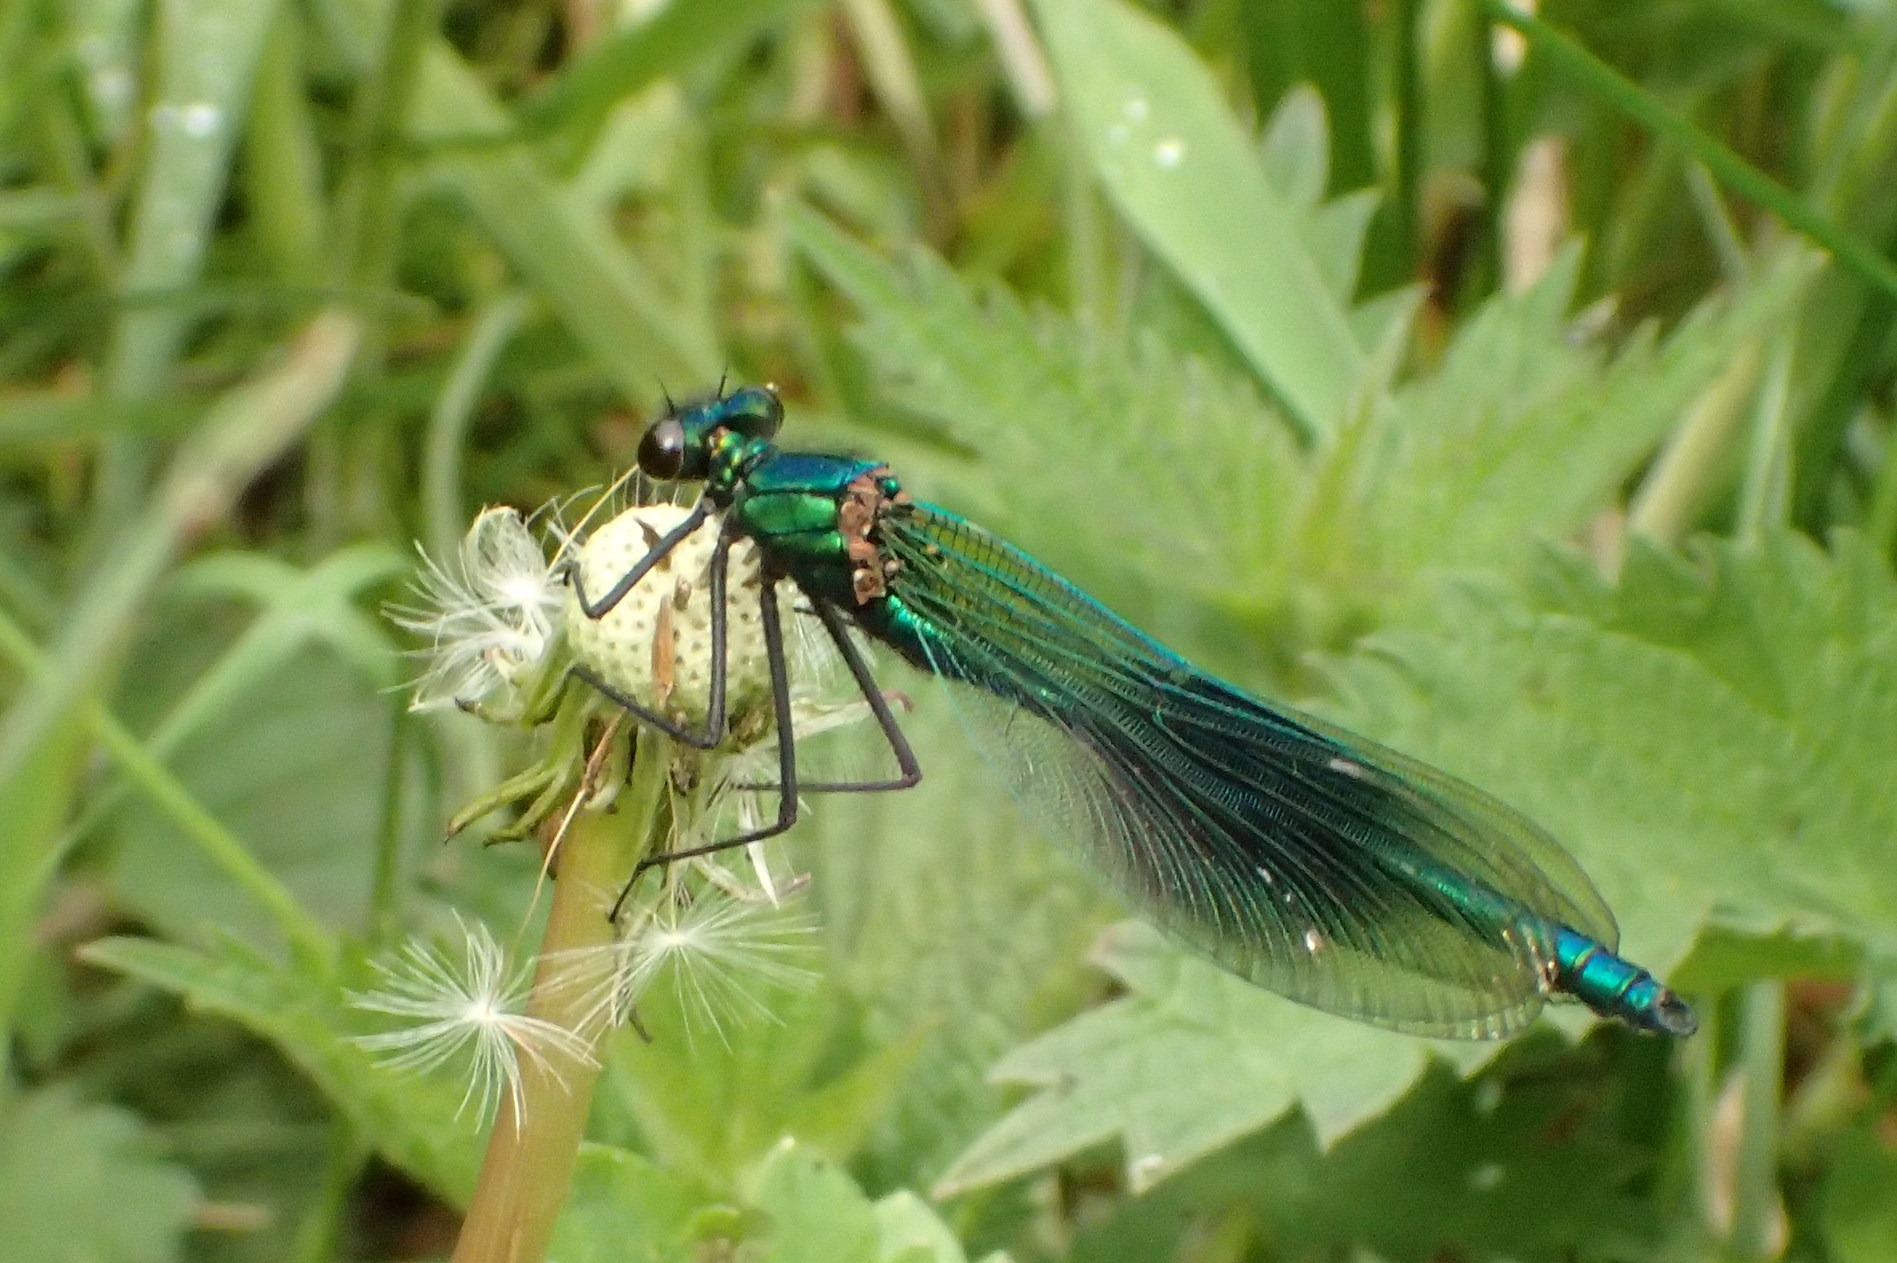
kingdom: Animalia
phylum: Arthropoda
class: Insecta
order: Odonata
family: Calopterygidae
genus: Calopteryx
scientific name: Calopteryx splendens
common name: Blåbåndet pragtvandnymfe
